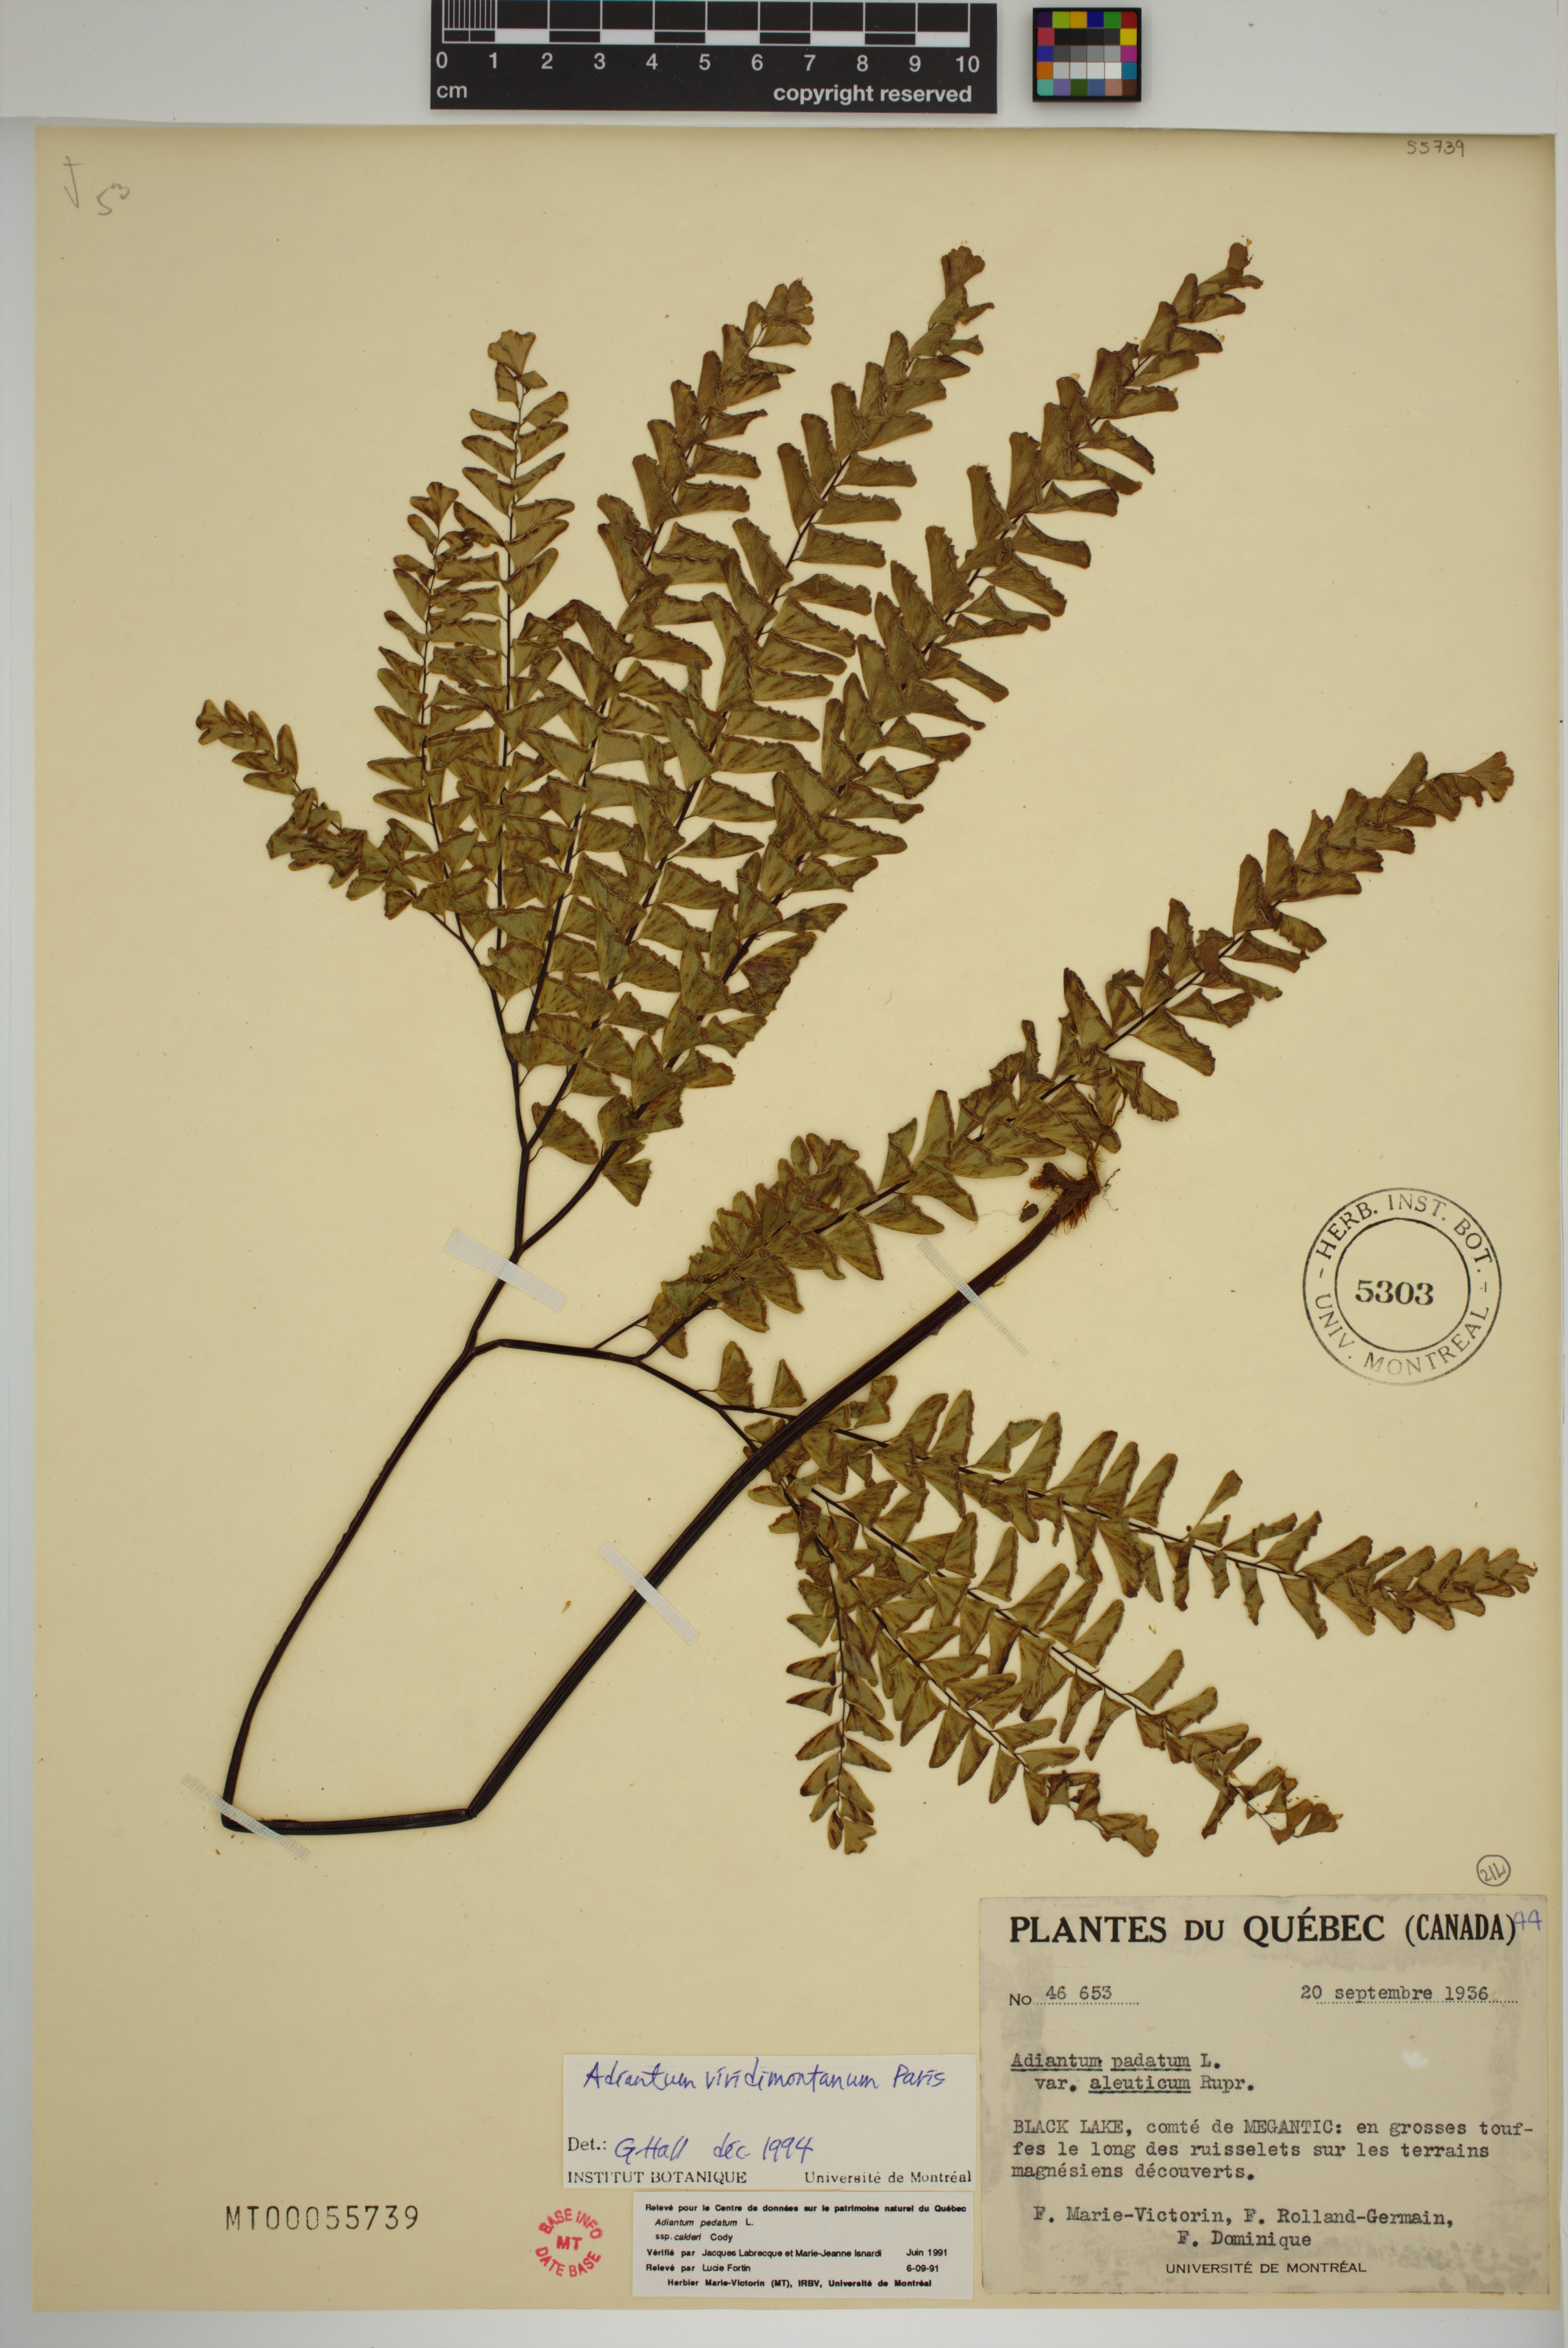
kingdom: Plantae
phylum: Tracheophyta
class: Polypodiopsida
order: Polypodiales
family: Pteridaceae
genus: Adiantum
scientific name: Adiantum viridimontanum
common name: Green mountain maidenhair
